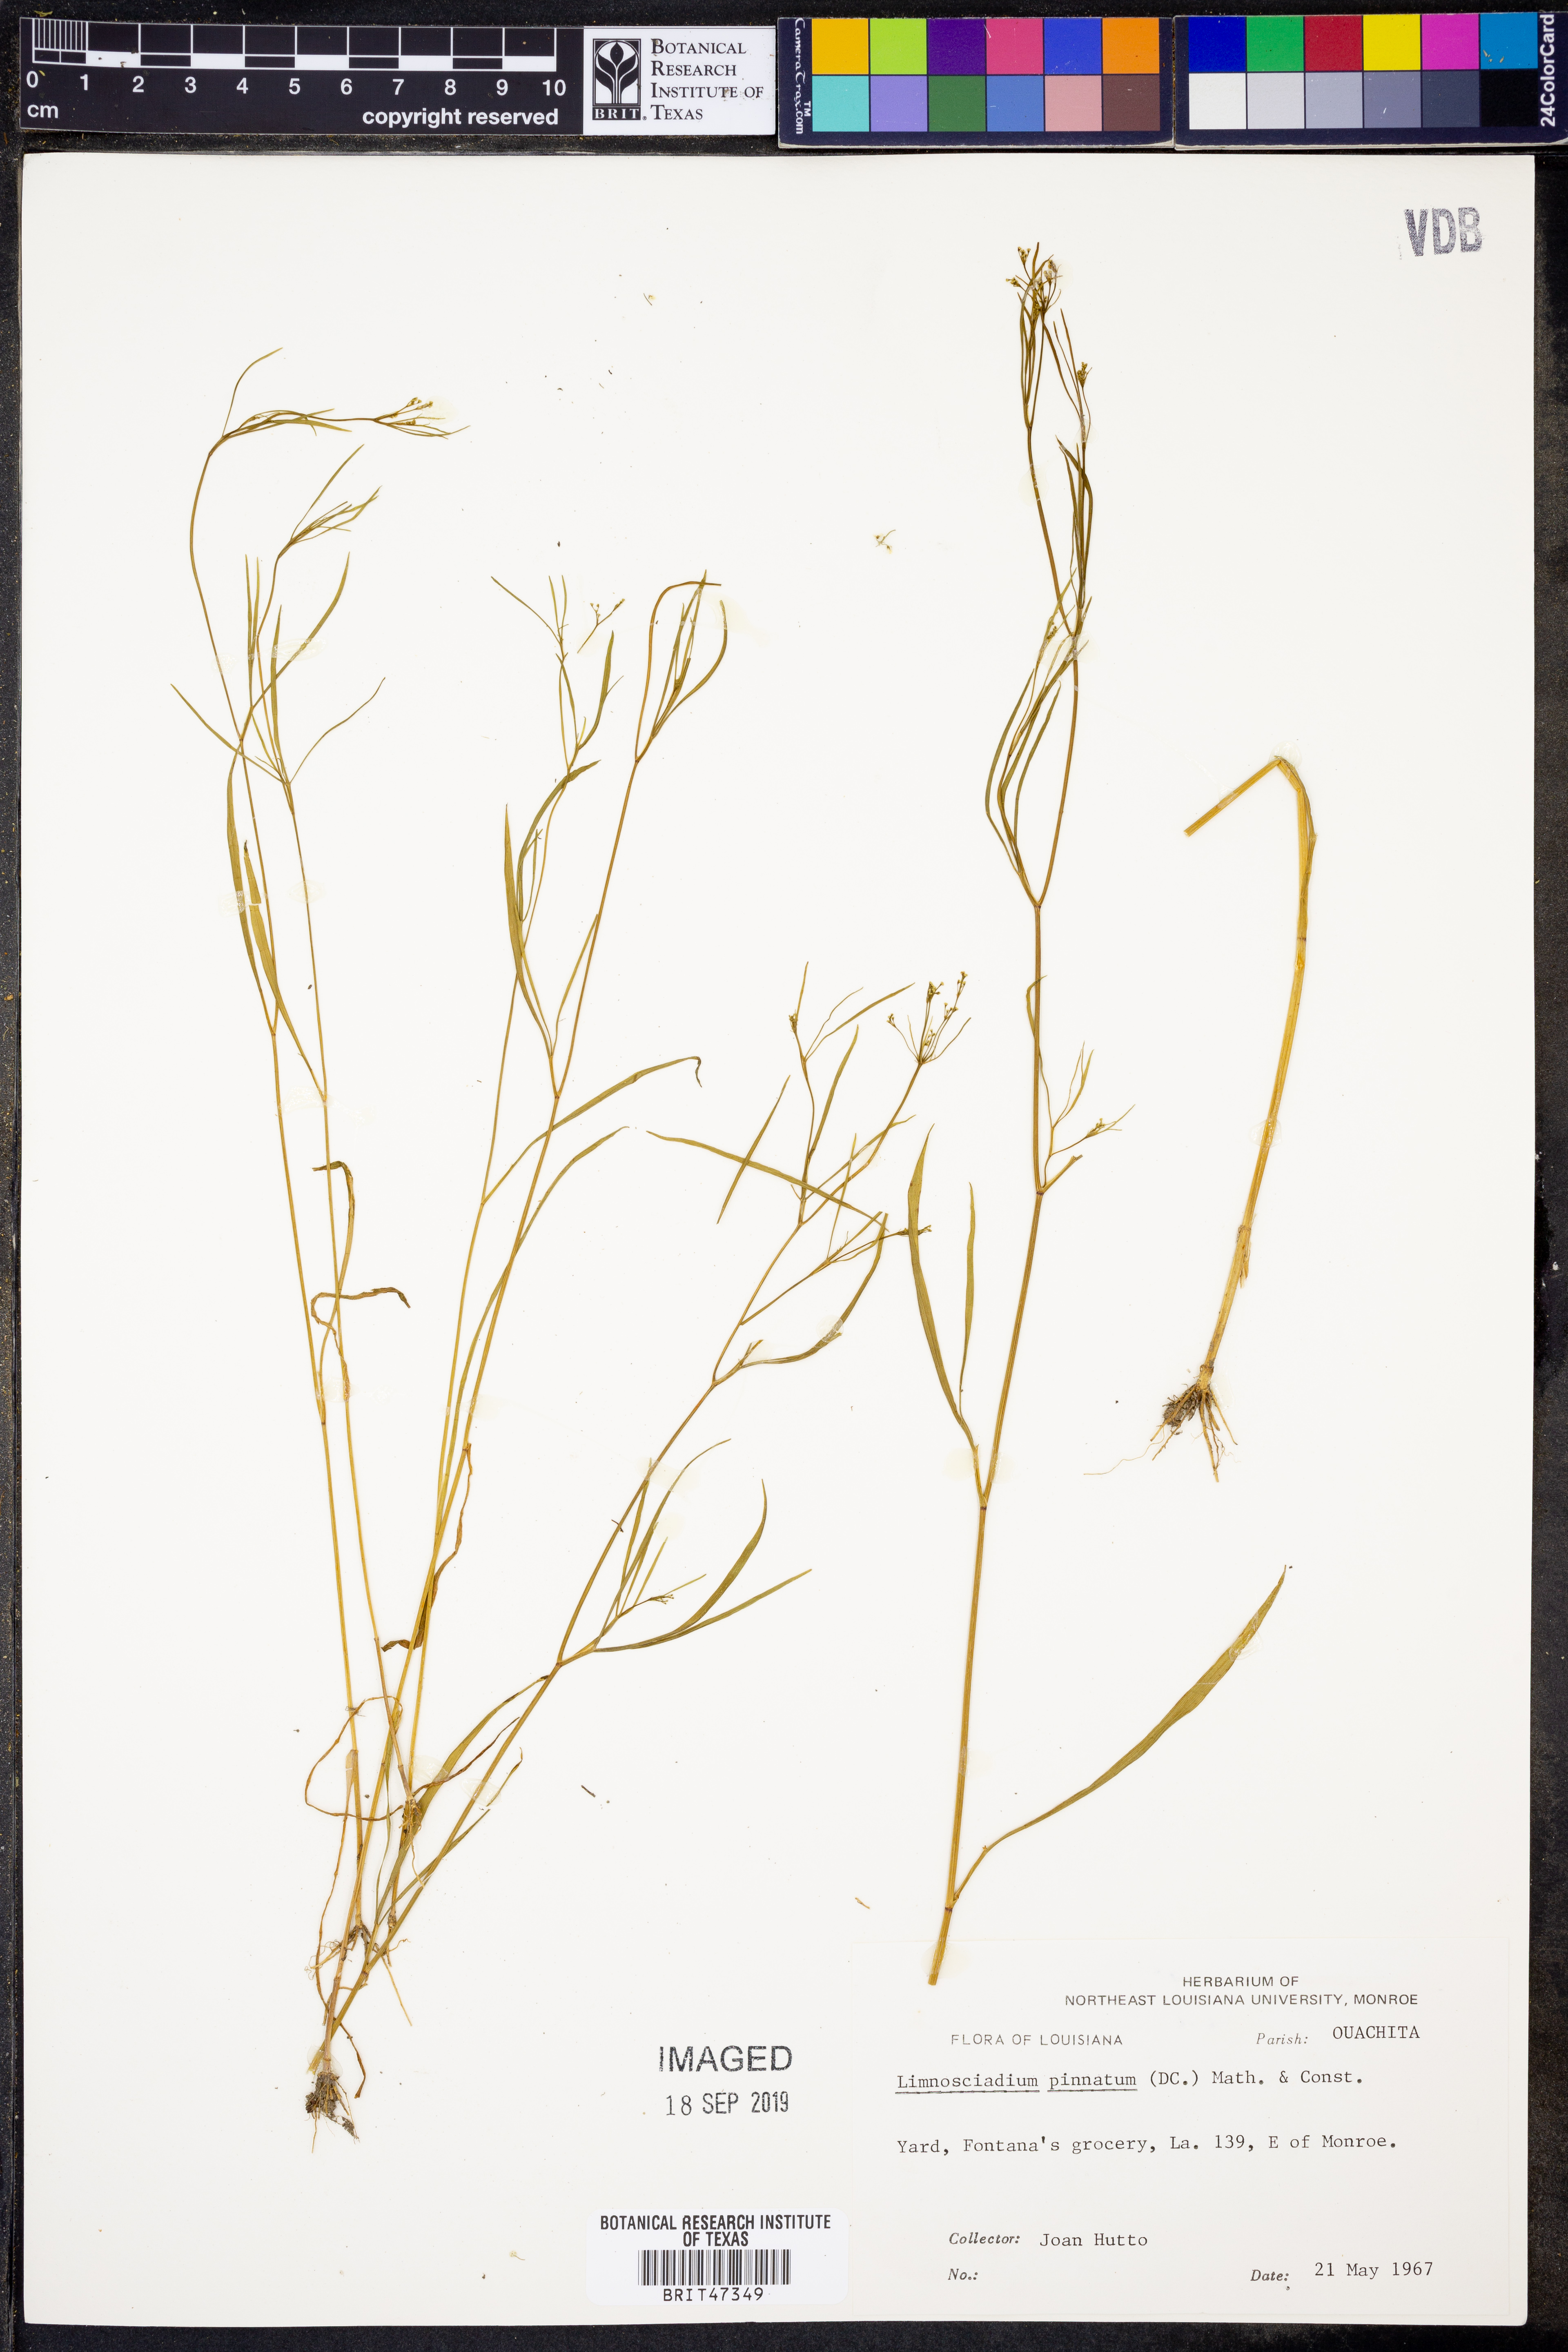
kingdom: Plantae
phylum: Tracheophyta
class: Magnoliopsida
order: Apiales
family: Apiaceae
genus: Limnosciadium
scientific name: Limnosciadium pinnatum
